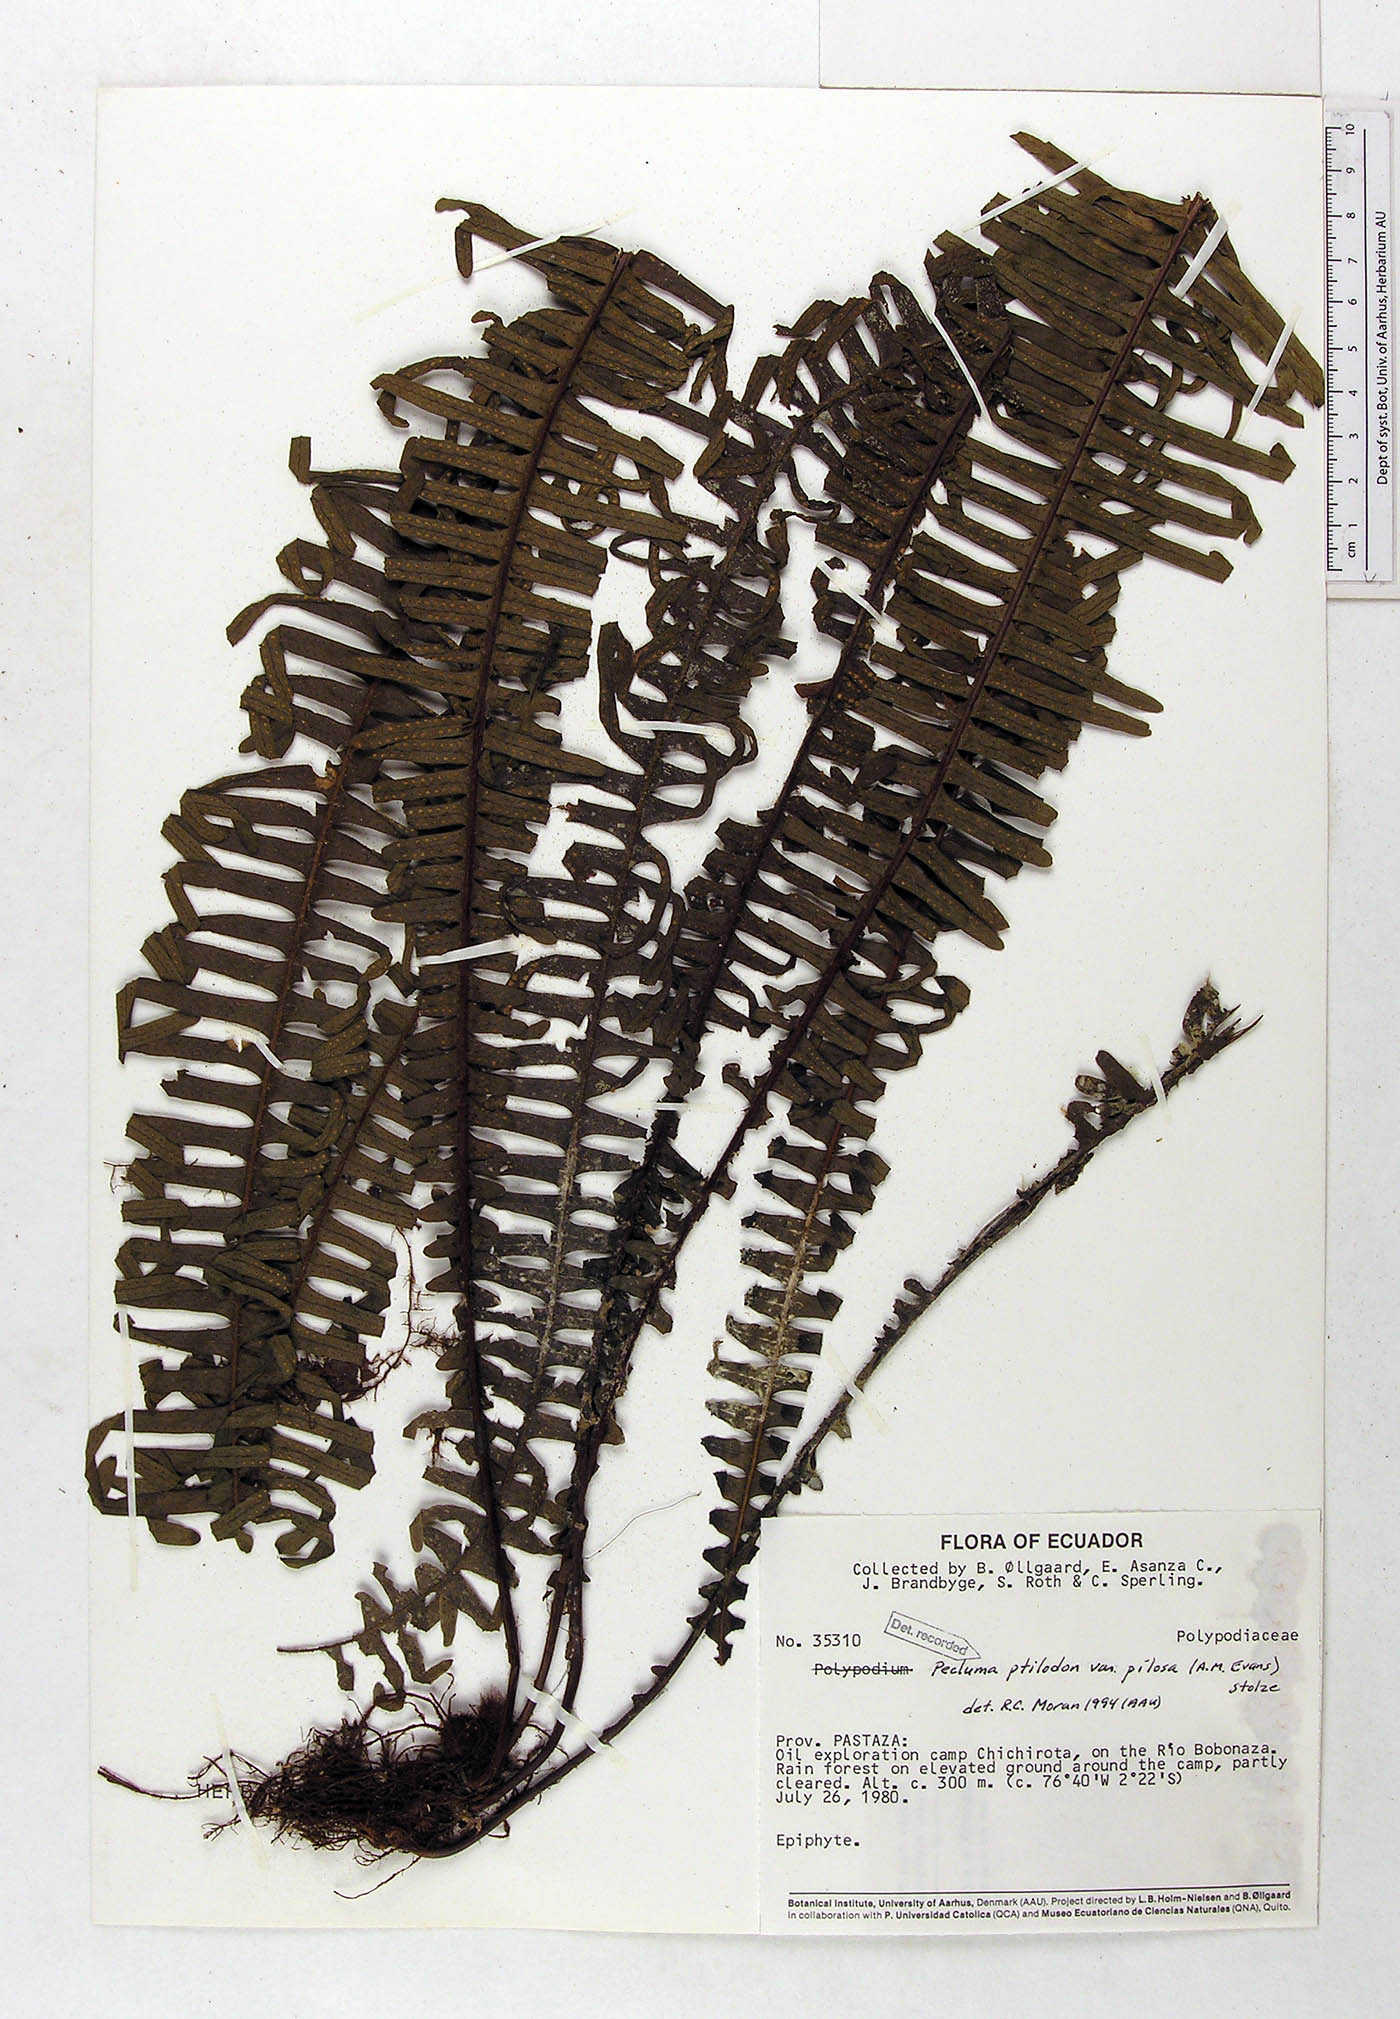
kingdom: Plantae
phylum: Tracheophyta
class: Polypodiopsida
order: Polypodiales
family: Polypodiaceae
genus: Pecluma
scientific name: Pecluma ptilotos
